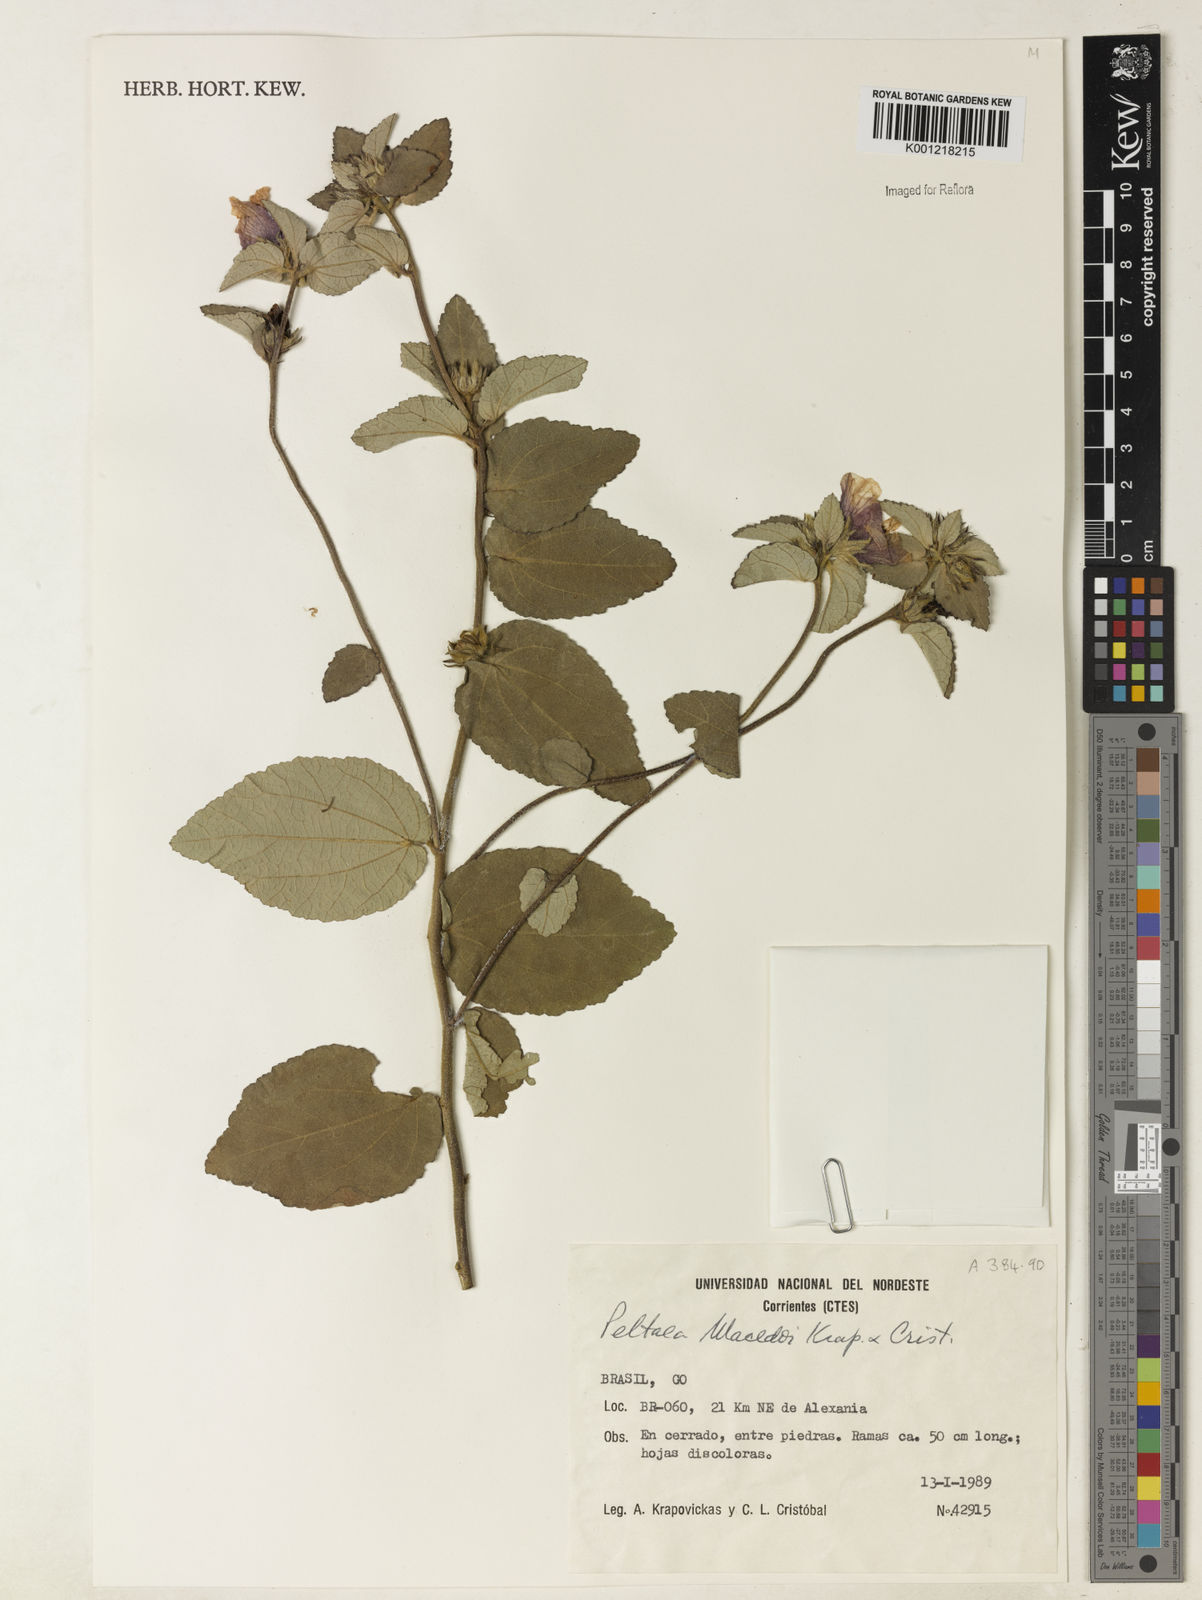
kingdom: Plantae
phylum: Tracheophyta
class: Magnoliopsida
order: Malvales
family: Malvaceae
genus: Peltaea
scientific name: Peltaea
